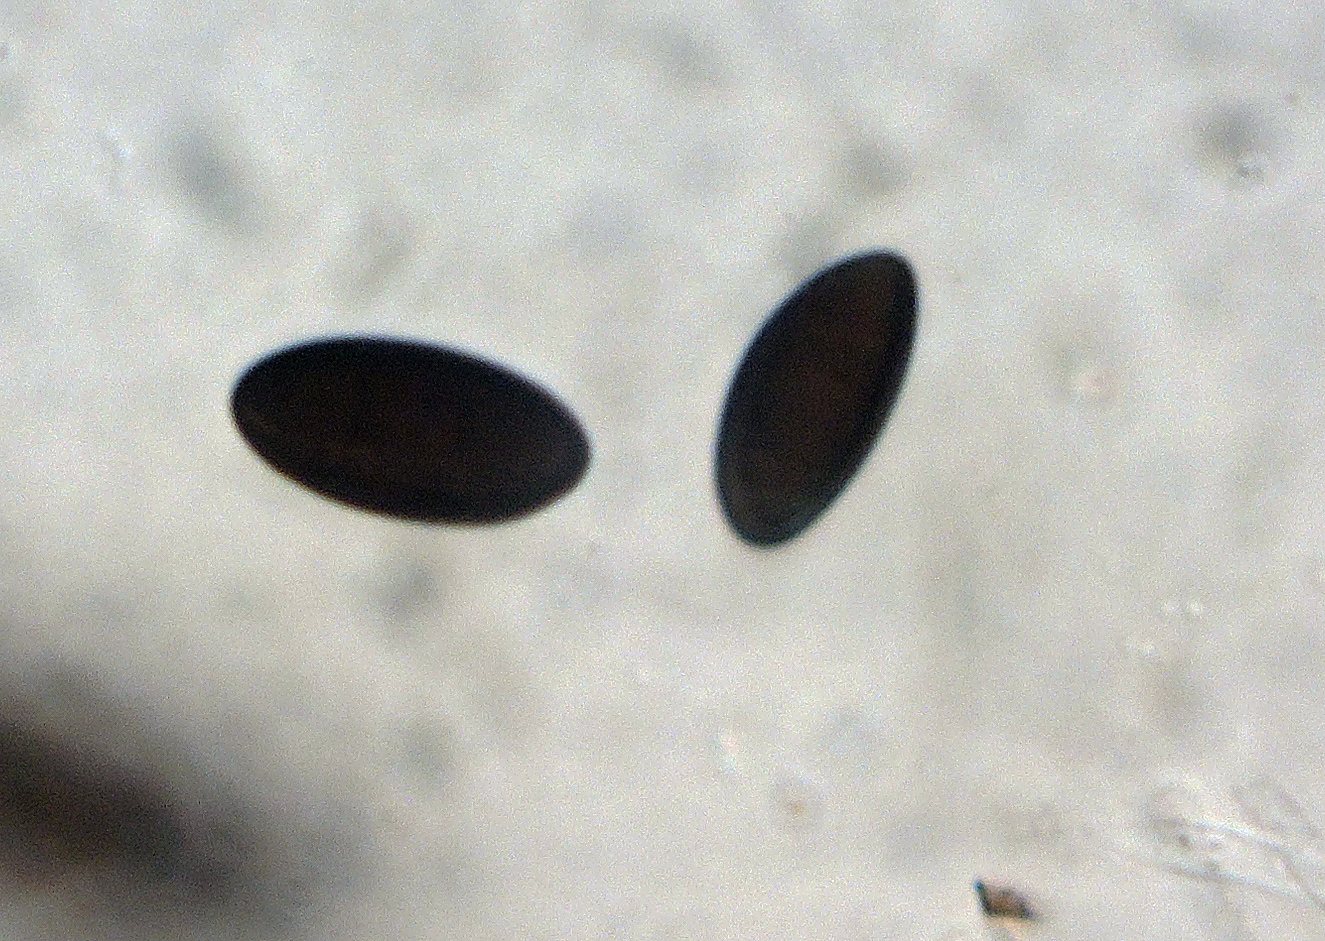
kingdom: Fungi
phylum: Ascomycota
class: Sordariomycetes
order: Xylariales
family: Graphostromataceae
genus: Biscogniauxia
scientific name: Biscogniauxia mediterranea
